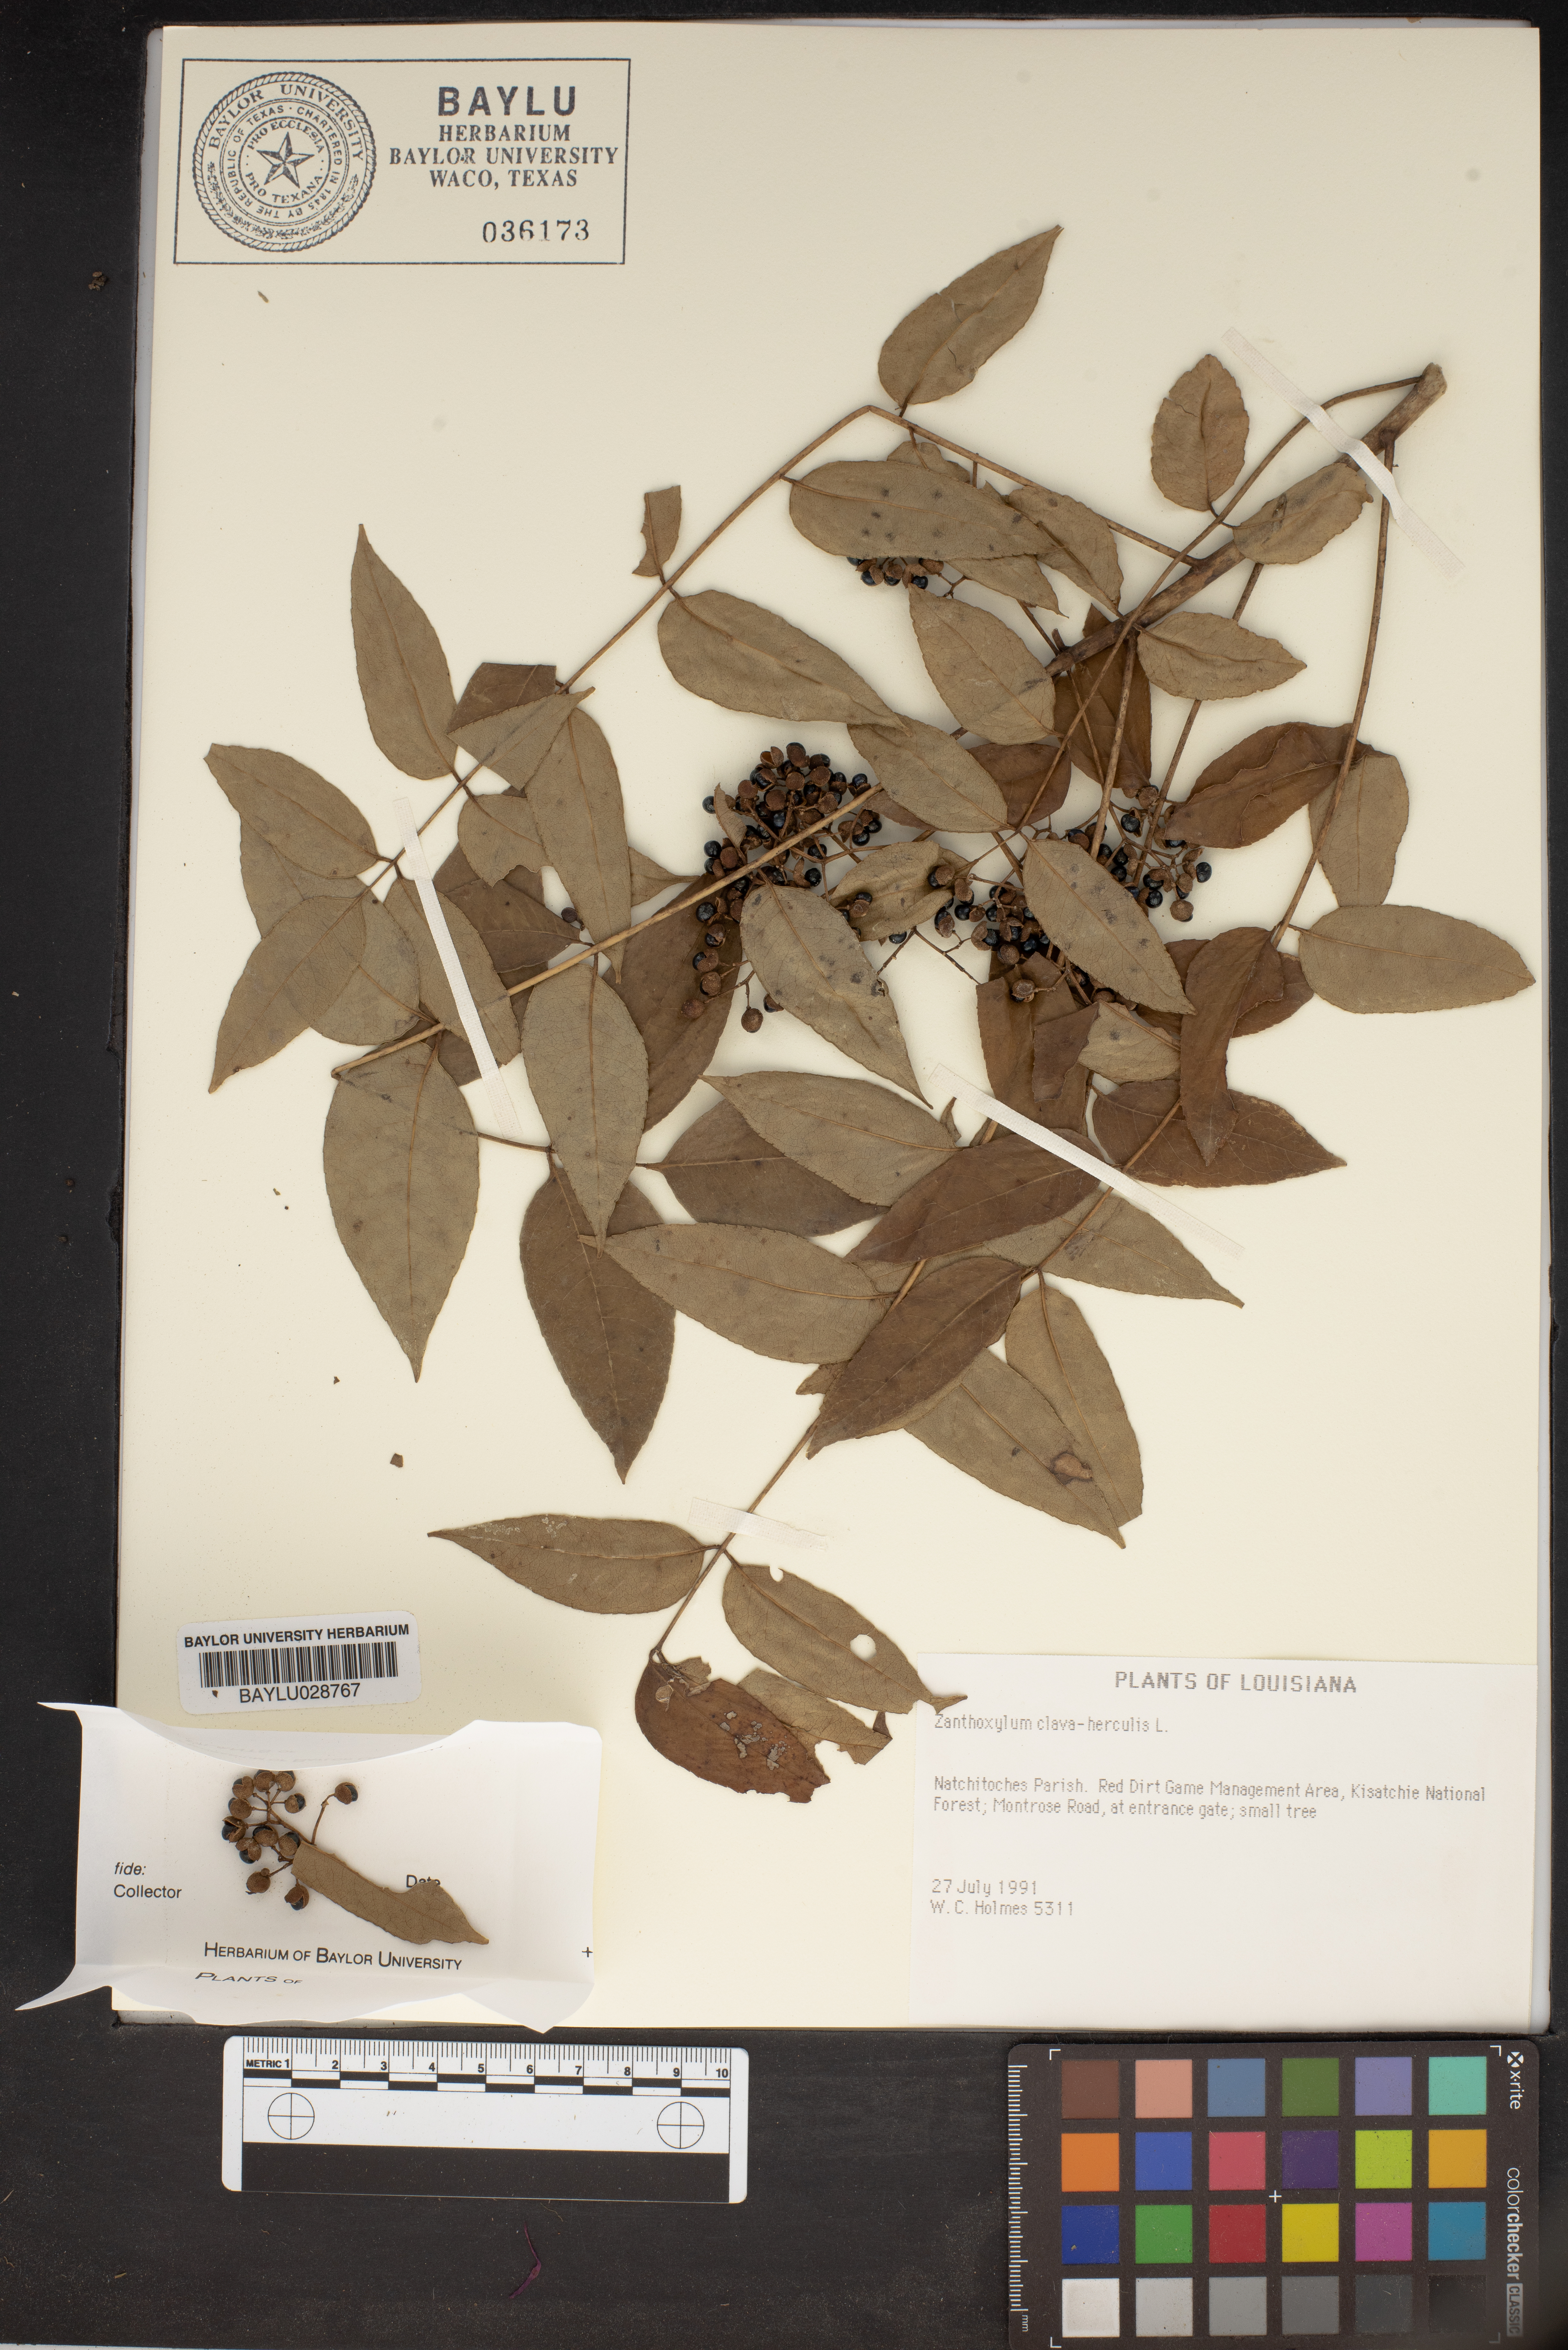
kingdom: Plantae
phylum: Tracheophyta
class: Magnoliopsida
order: Sapindales
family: Rutaceae
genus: Zanthoxylum
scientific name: Zanthoxylum avicennae
